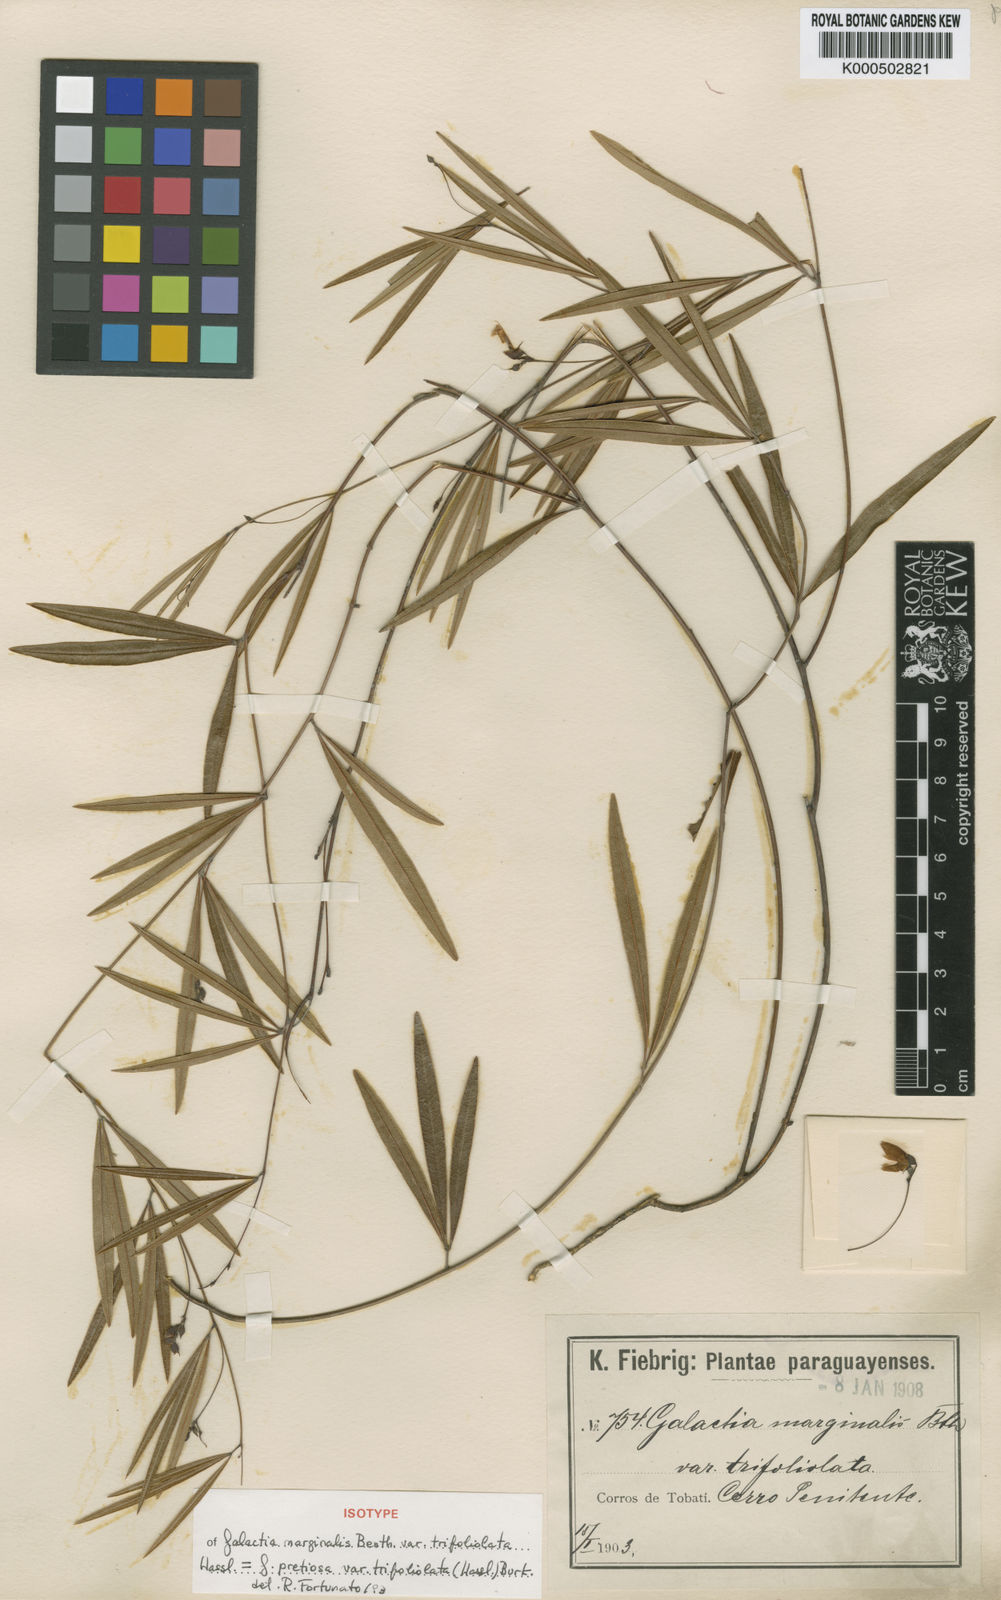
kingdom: Plantae
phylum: Tracheophyta
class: Magnoliopsida
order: Fabales
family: Fabaceae
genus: Nanogalactia
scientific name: Nanogalactia heterophylla
